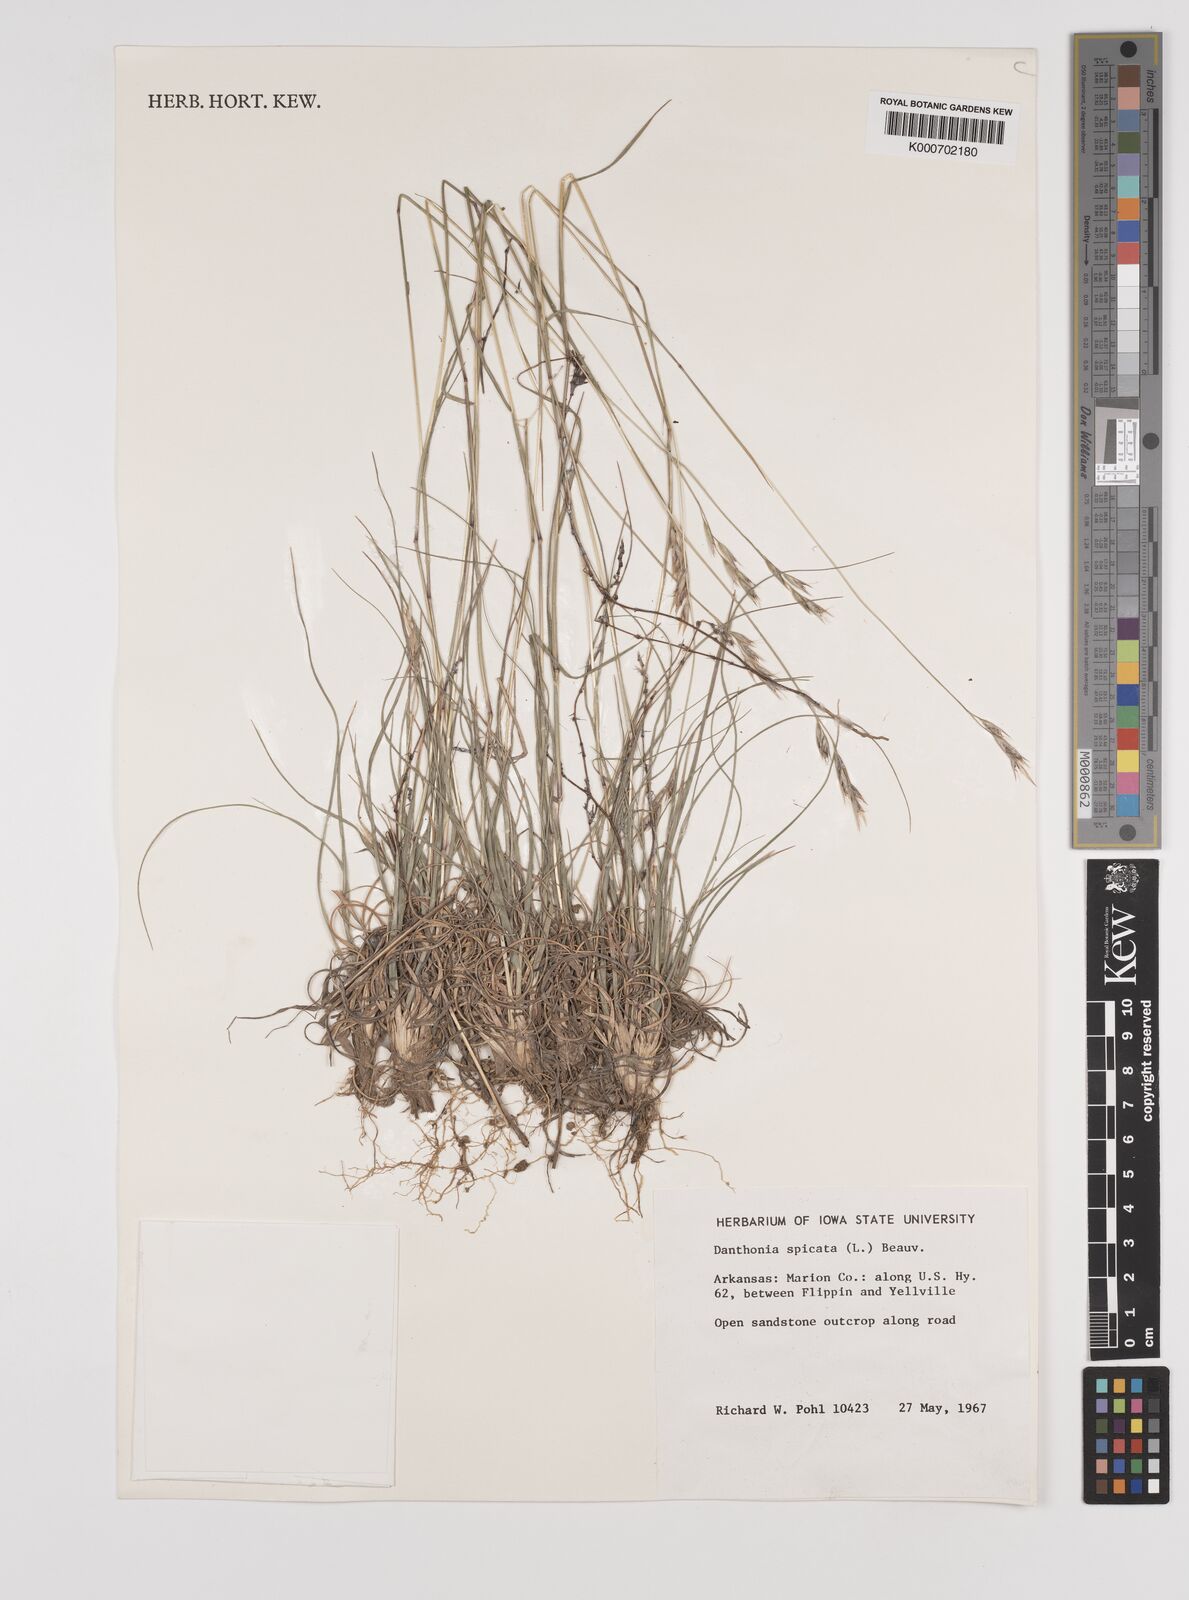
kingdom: Plantae
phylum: Tracheophyta
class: Liliopsida
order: Poales
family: Poaceae
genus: Danthonia
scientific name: Danthonia spicata
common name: Common wild oatgrass
